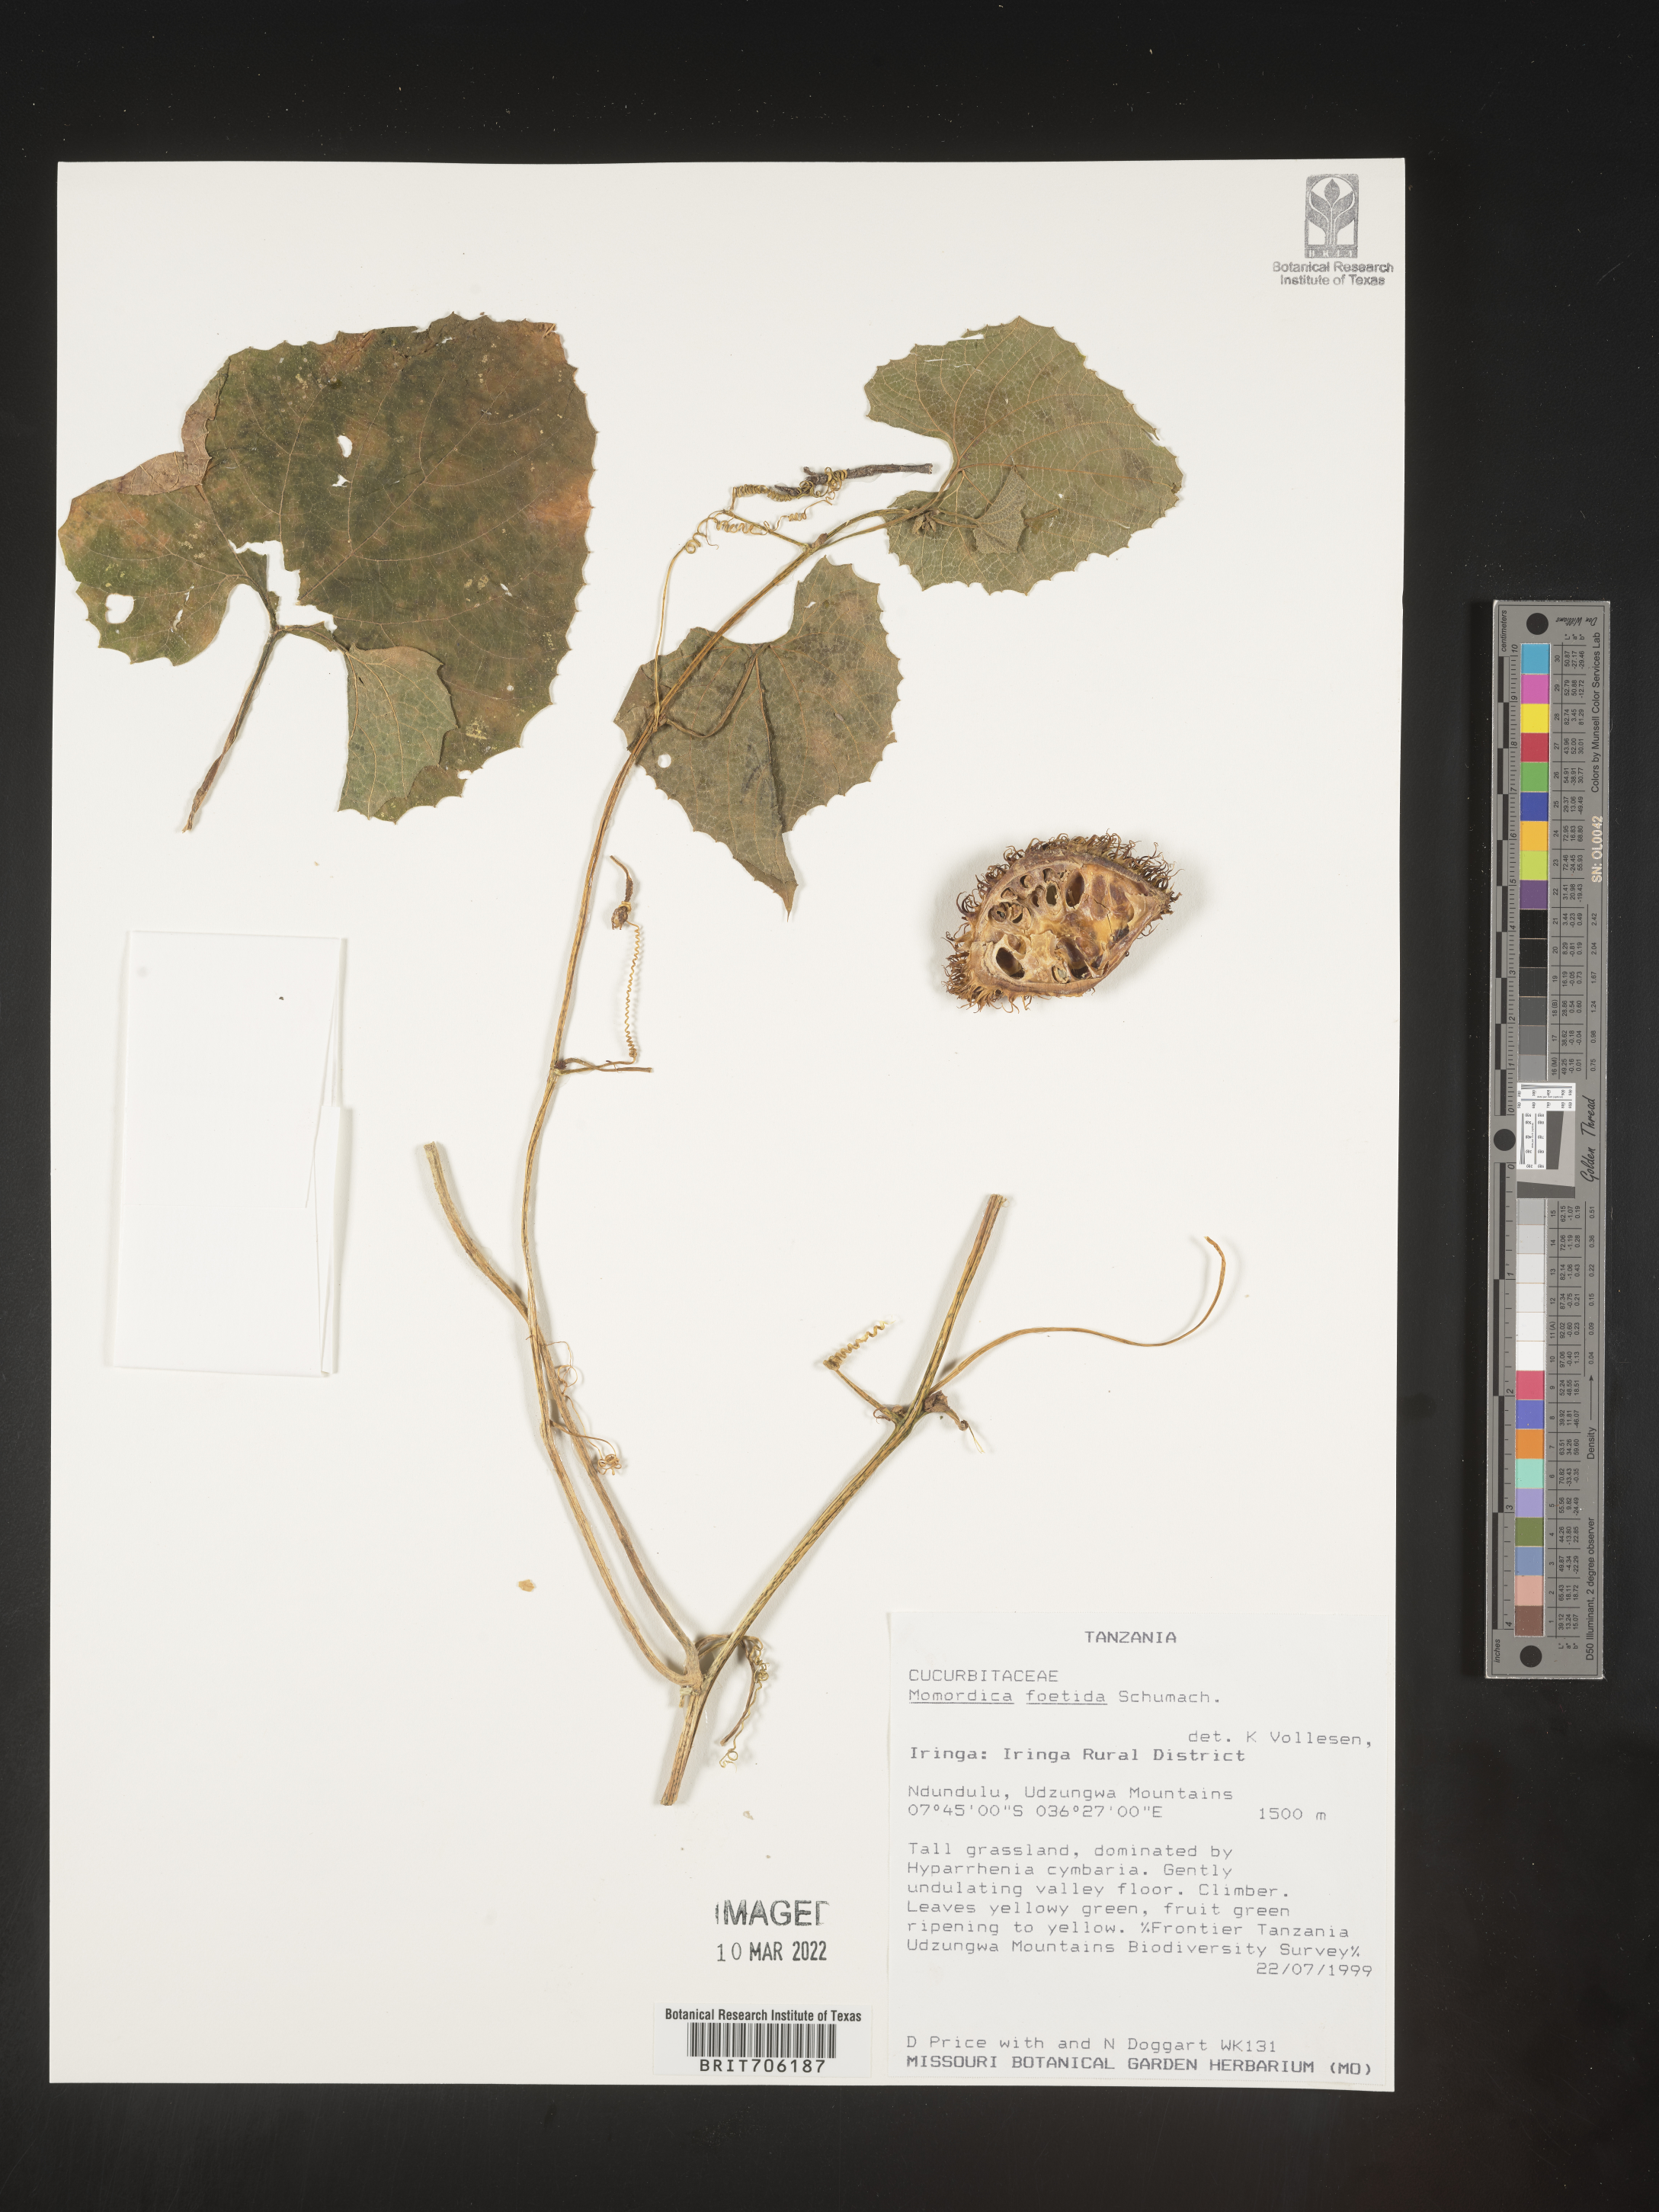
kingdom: Plantae
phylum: Tracheophyta
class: Magnoliopsida
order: Cucurbitales
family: Cucurbitaceae
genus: Momordica
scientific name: Momordica
